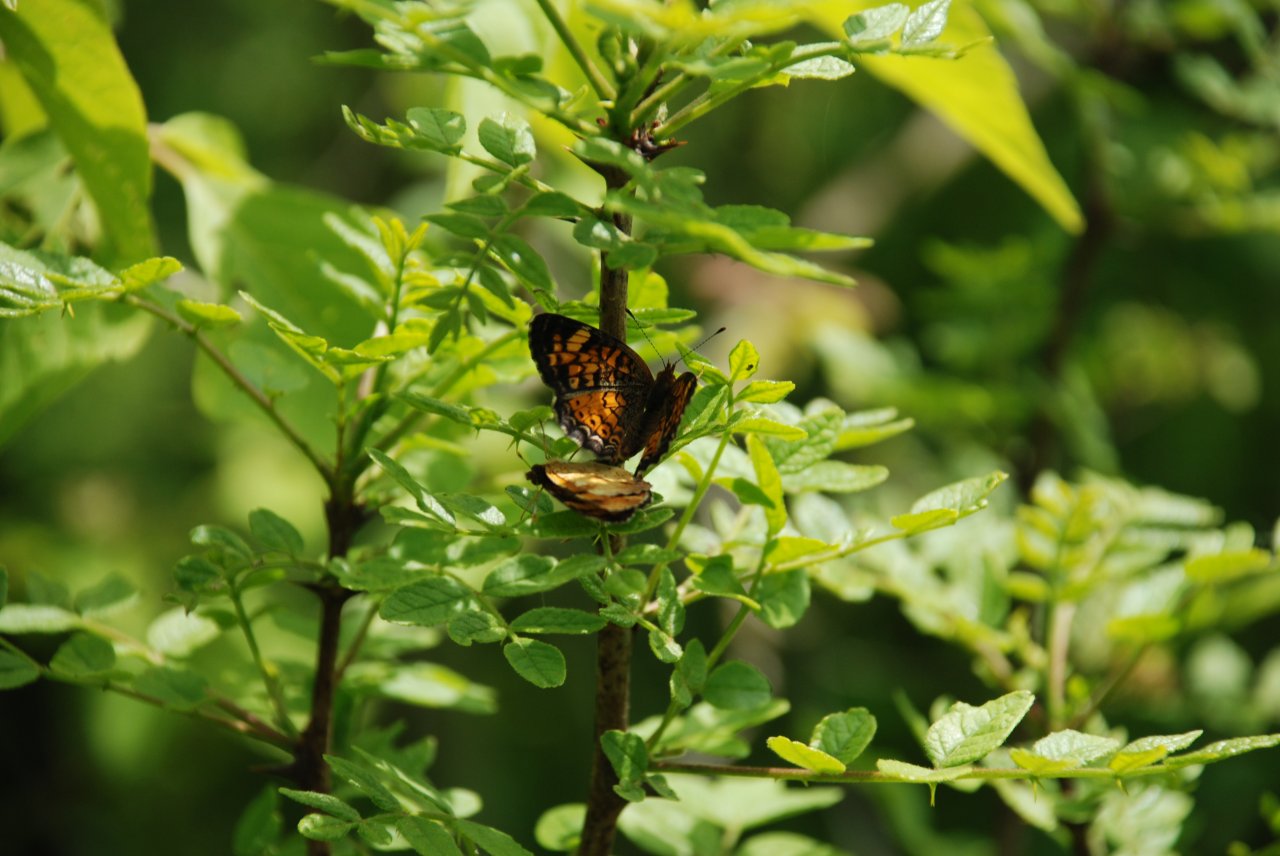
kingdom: Animalia
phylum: Arthropoda
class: Insecta
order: Lepidoptera
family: Nymphalidae
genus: Phyciodes
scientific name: Phyciodes tharos
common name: Pearl Crescent
